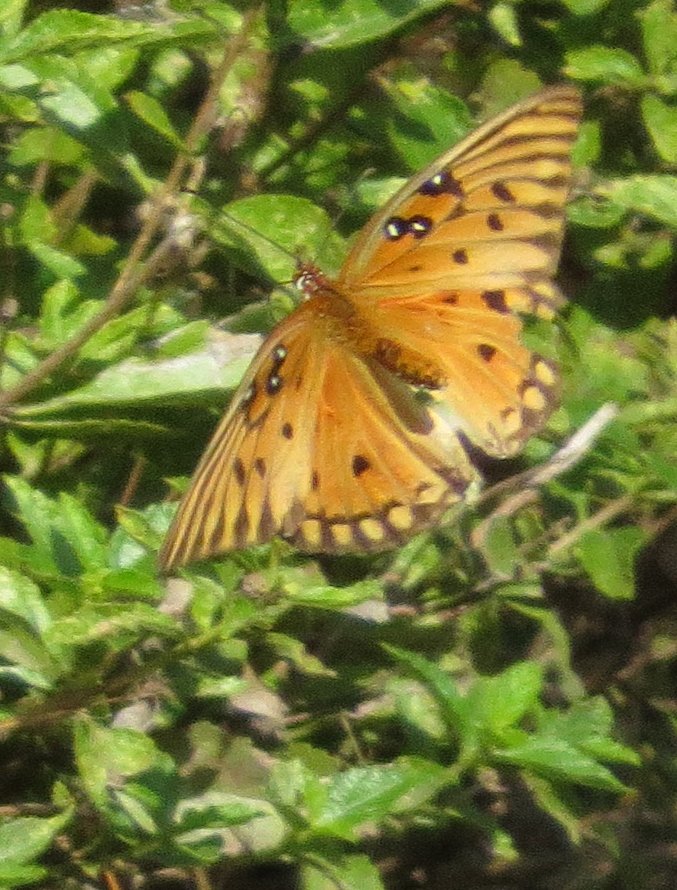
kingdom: Animalia
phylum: Arthropoda
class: Insecta
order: Lepidoptera
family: Nymphalidae
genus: Dione
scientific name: Dione vanillae
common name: Gulf Fritillary
